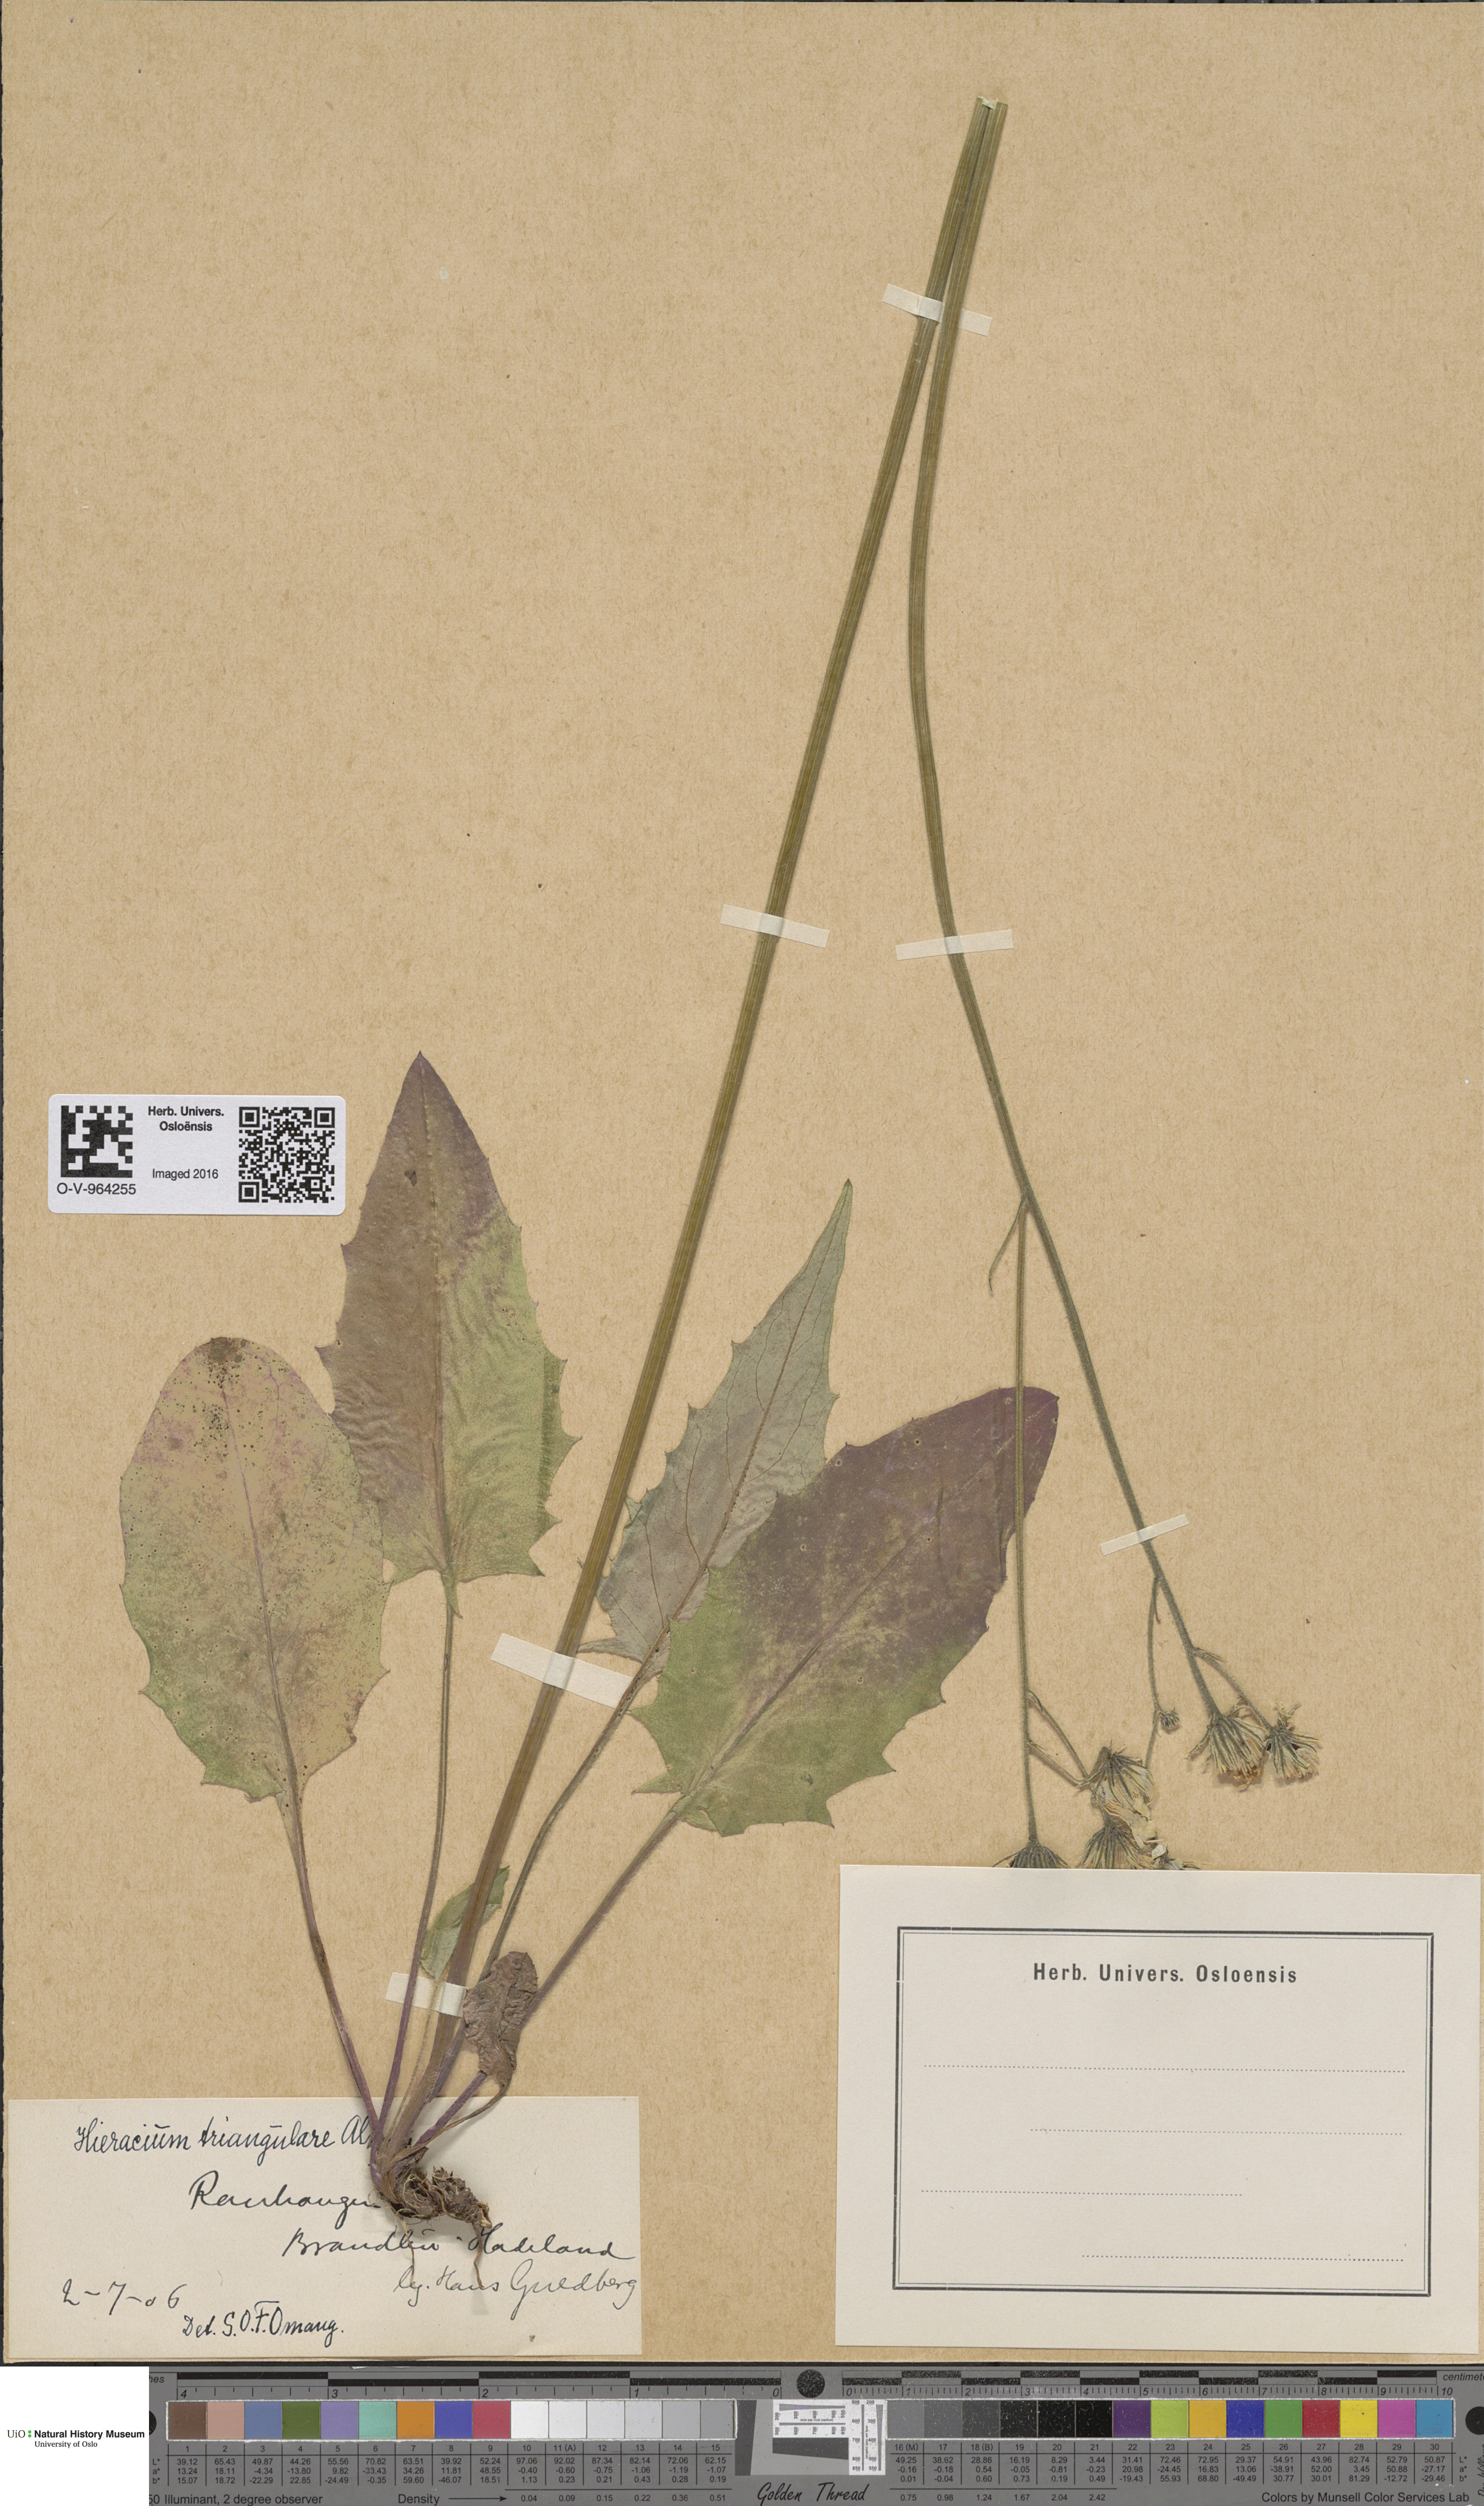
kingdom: Plantae
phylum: Tracheophyta
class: Magnoliopsida
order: Asterales
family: Asteraceae
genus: Hieracium
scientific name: Hieracium triangulare
